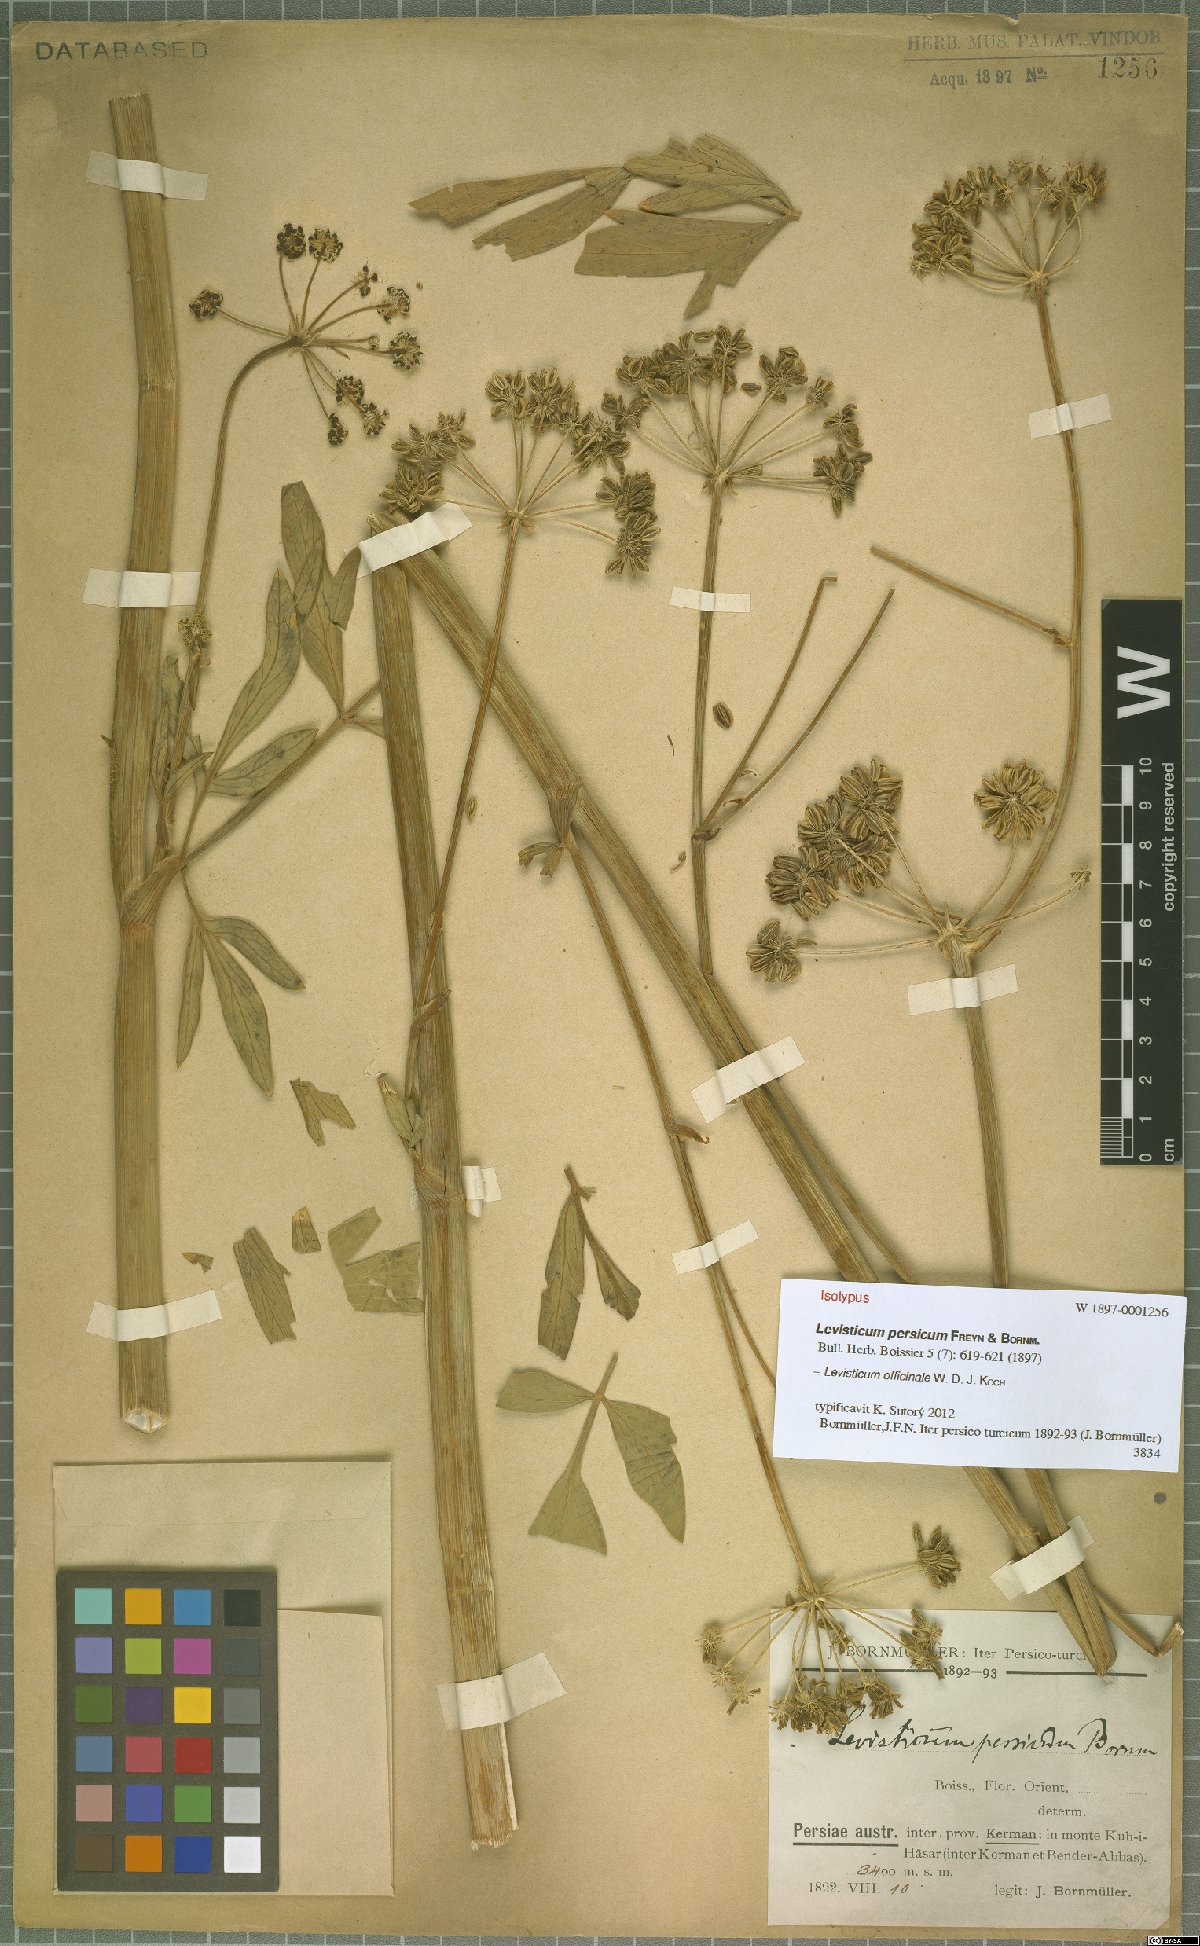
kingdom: Plantae
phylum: Tracheophyta
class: Magnoliopsida
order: Apiales
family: Apiaceae
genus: Levisticum
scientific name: Levisticum officinale
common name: Lovage
